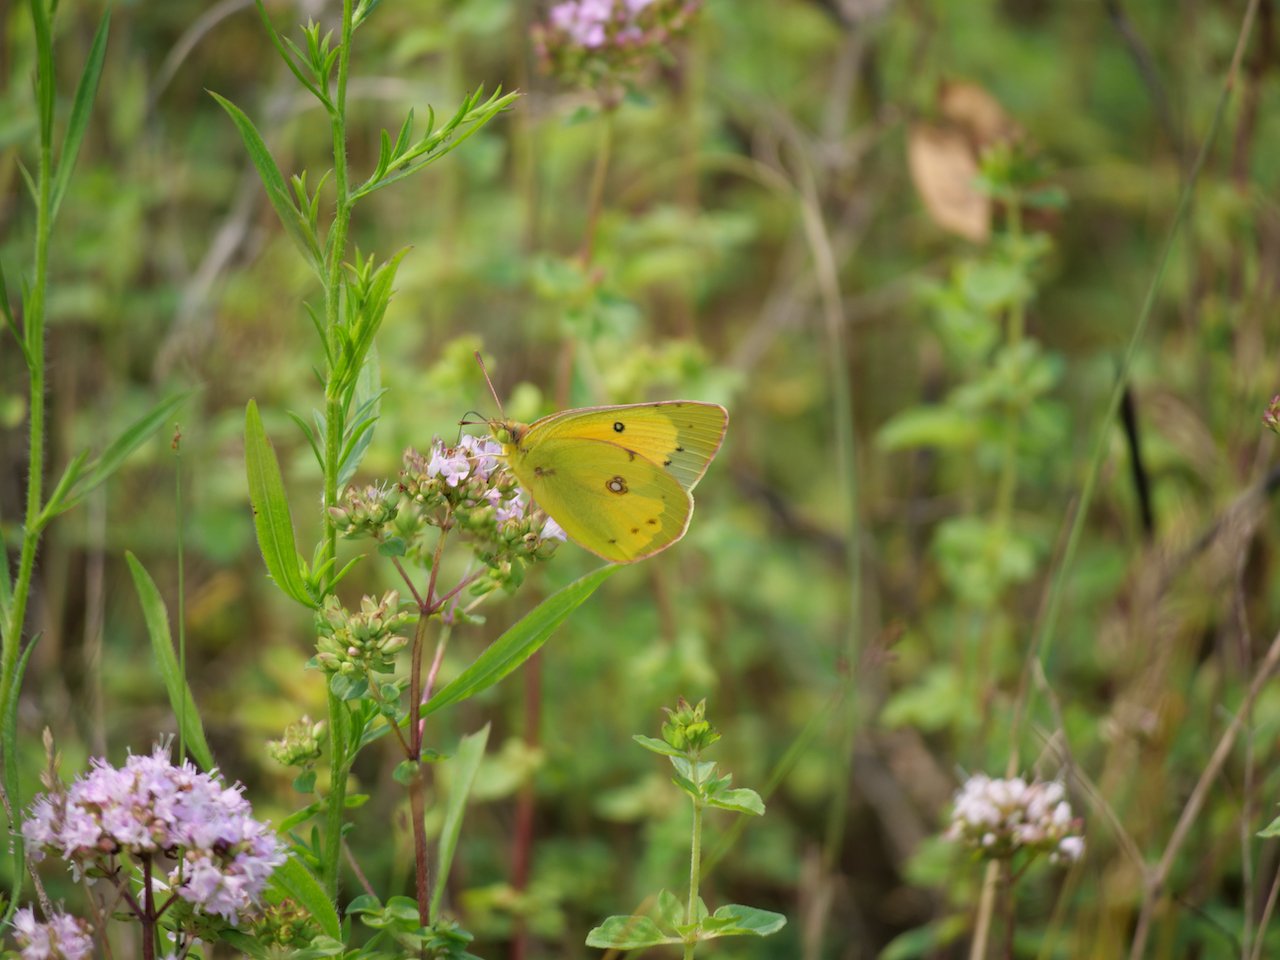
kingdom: Animalia
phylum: Arthropoda
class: Insecta
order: Lepidoptera
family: Pieridae
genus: Colias
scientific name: Colias eurytheme
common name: Orange Sulphur
